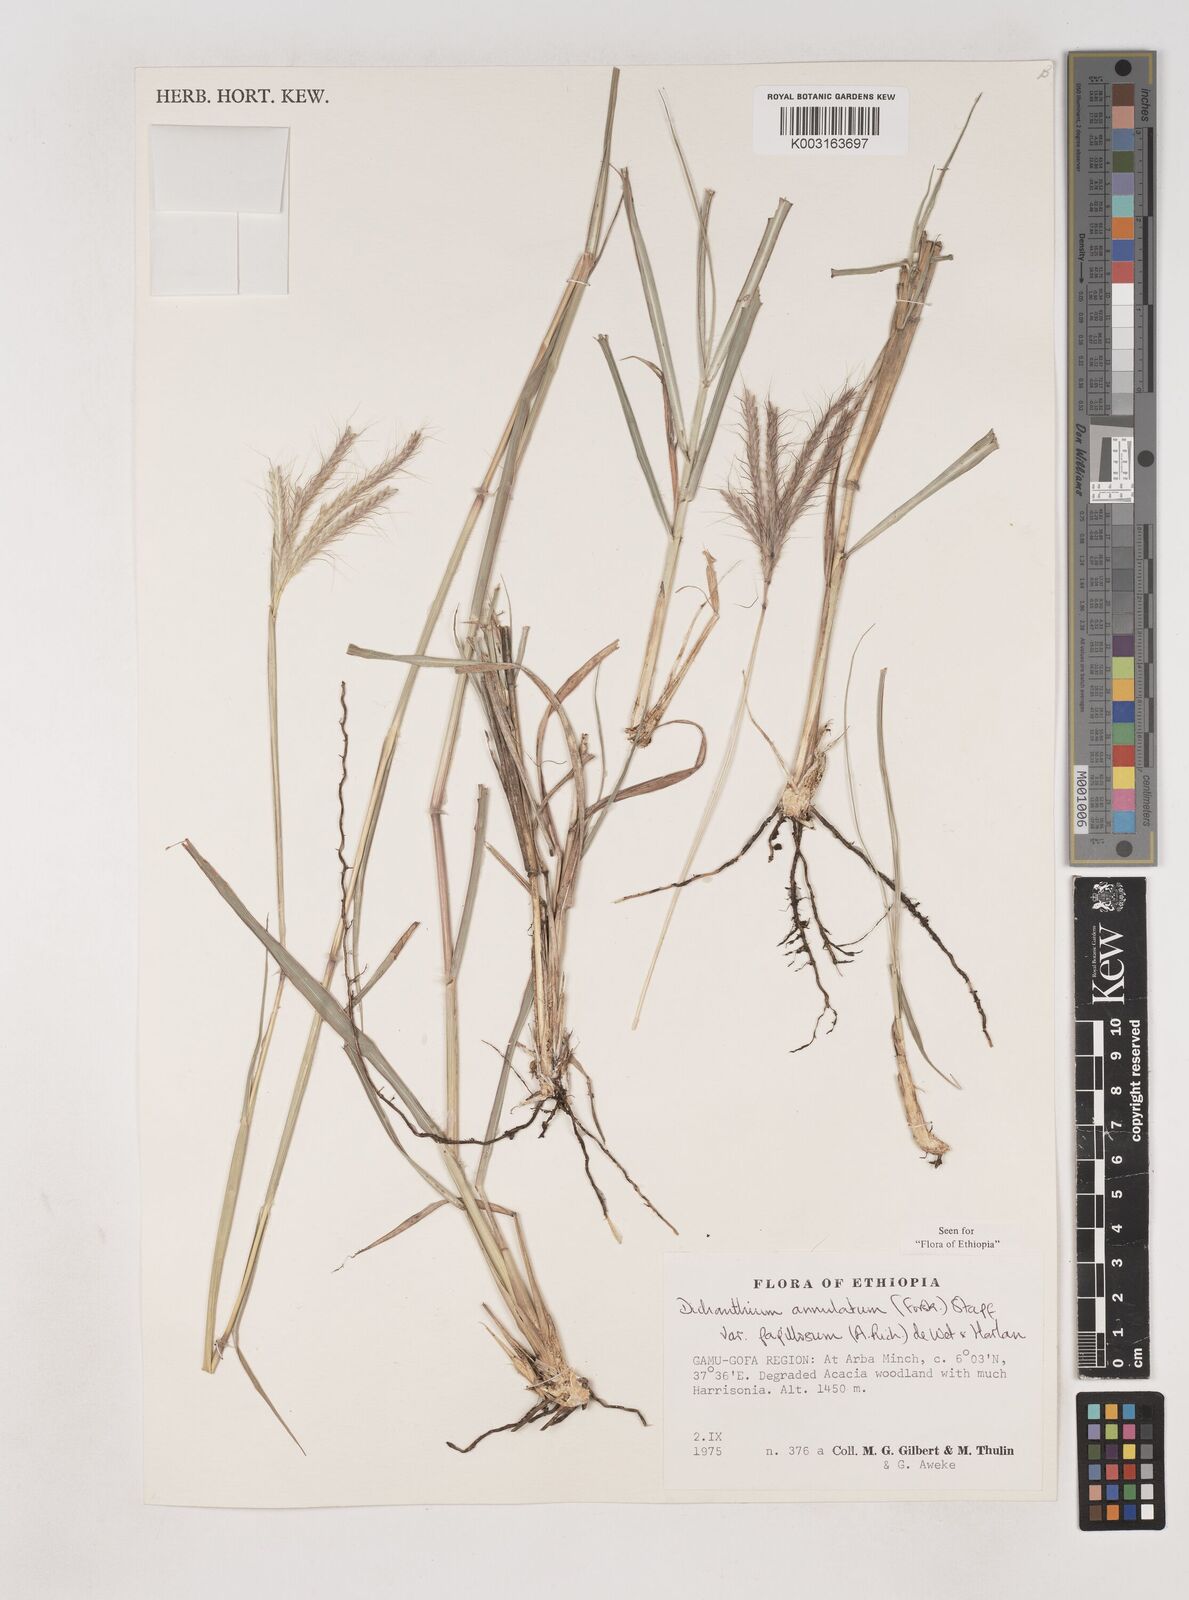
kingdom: Plantae
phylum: Tracheophyta
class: Liliopsida
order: Poales
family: Poaceae
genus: Dichanthium
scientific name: Dichanthium annulatum
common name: Kleberg's bluestem
